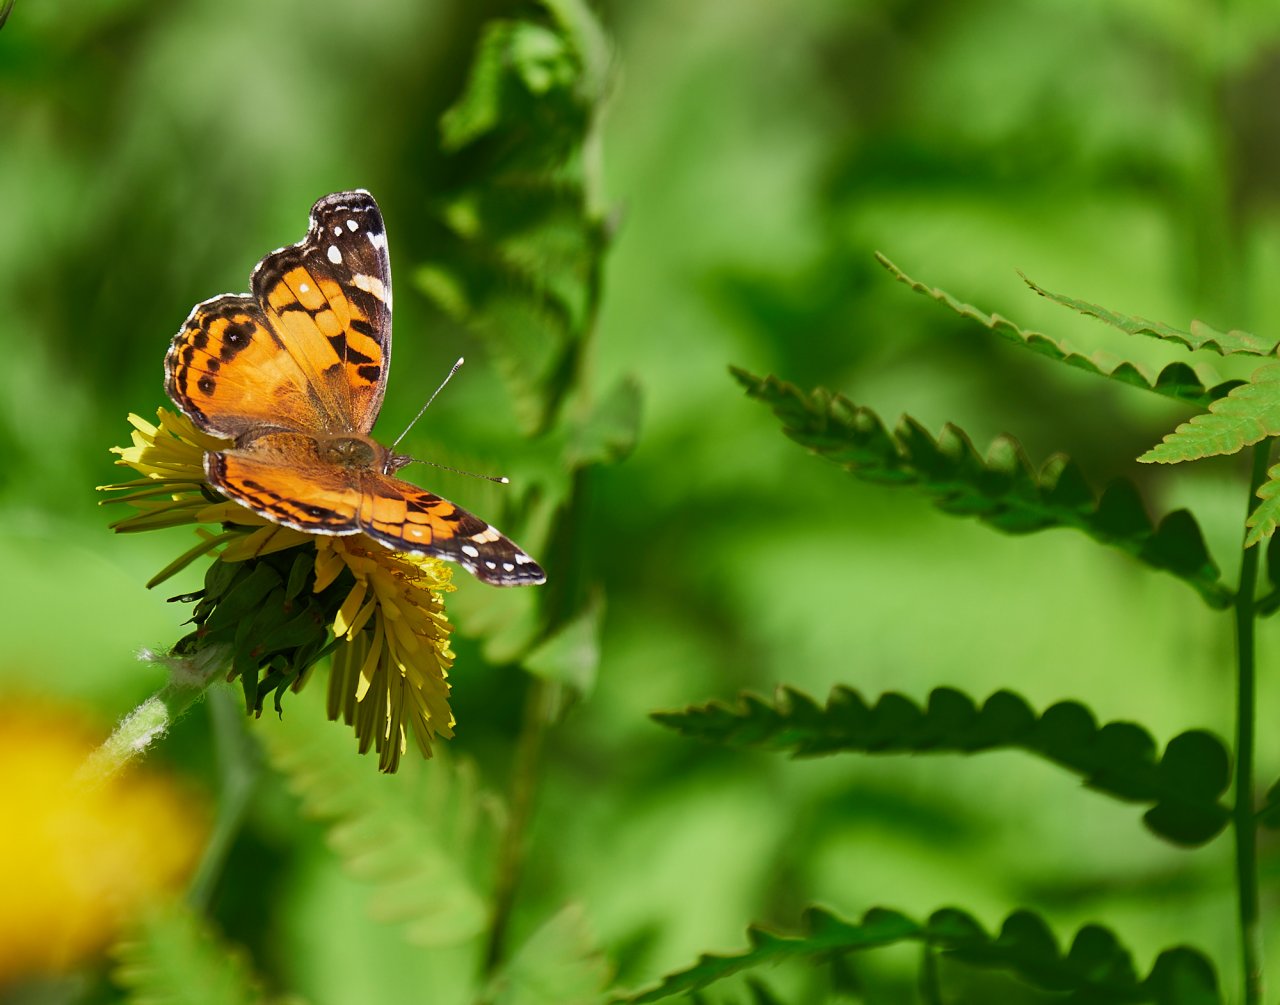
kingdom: Animalia
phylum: Arthropoda
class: Insecta
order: Lepidoptera
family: Nymphalidae
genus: Vanessa
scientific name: Vanessa virginiensis
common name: American Lady
